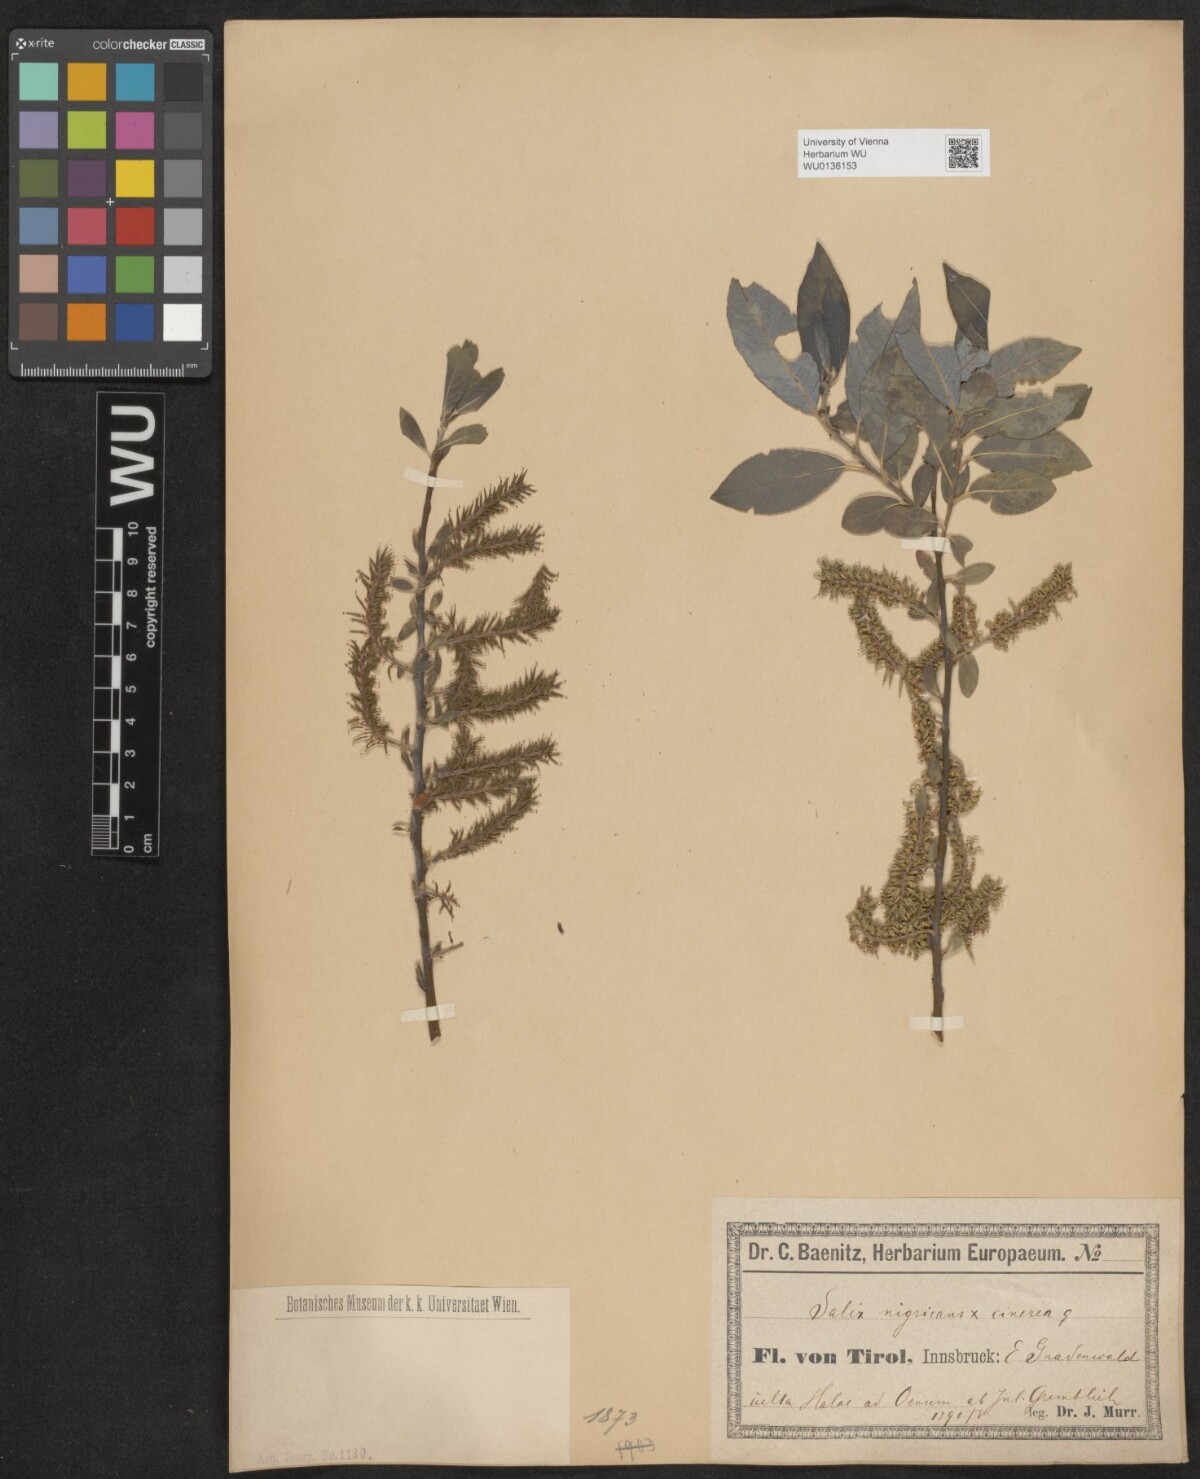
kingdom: Plantae
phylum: Tracheophyta
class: Magnoliopsida
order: Malpighiales
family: Salicaceae
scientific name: Salicaceae
